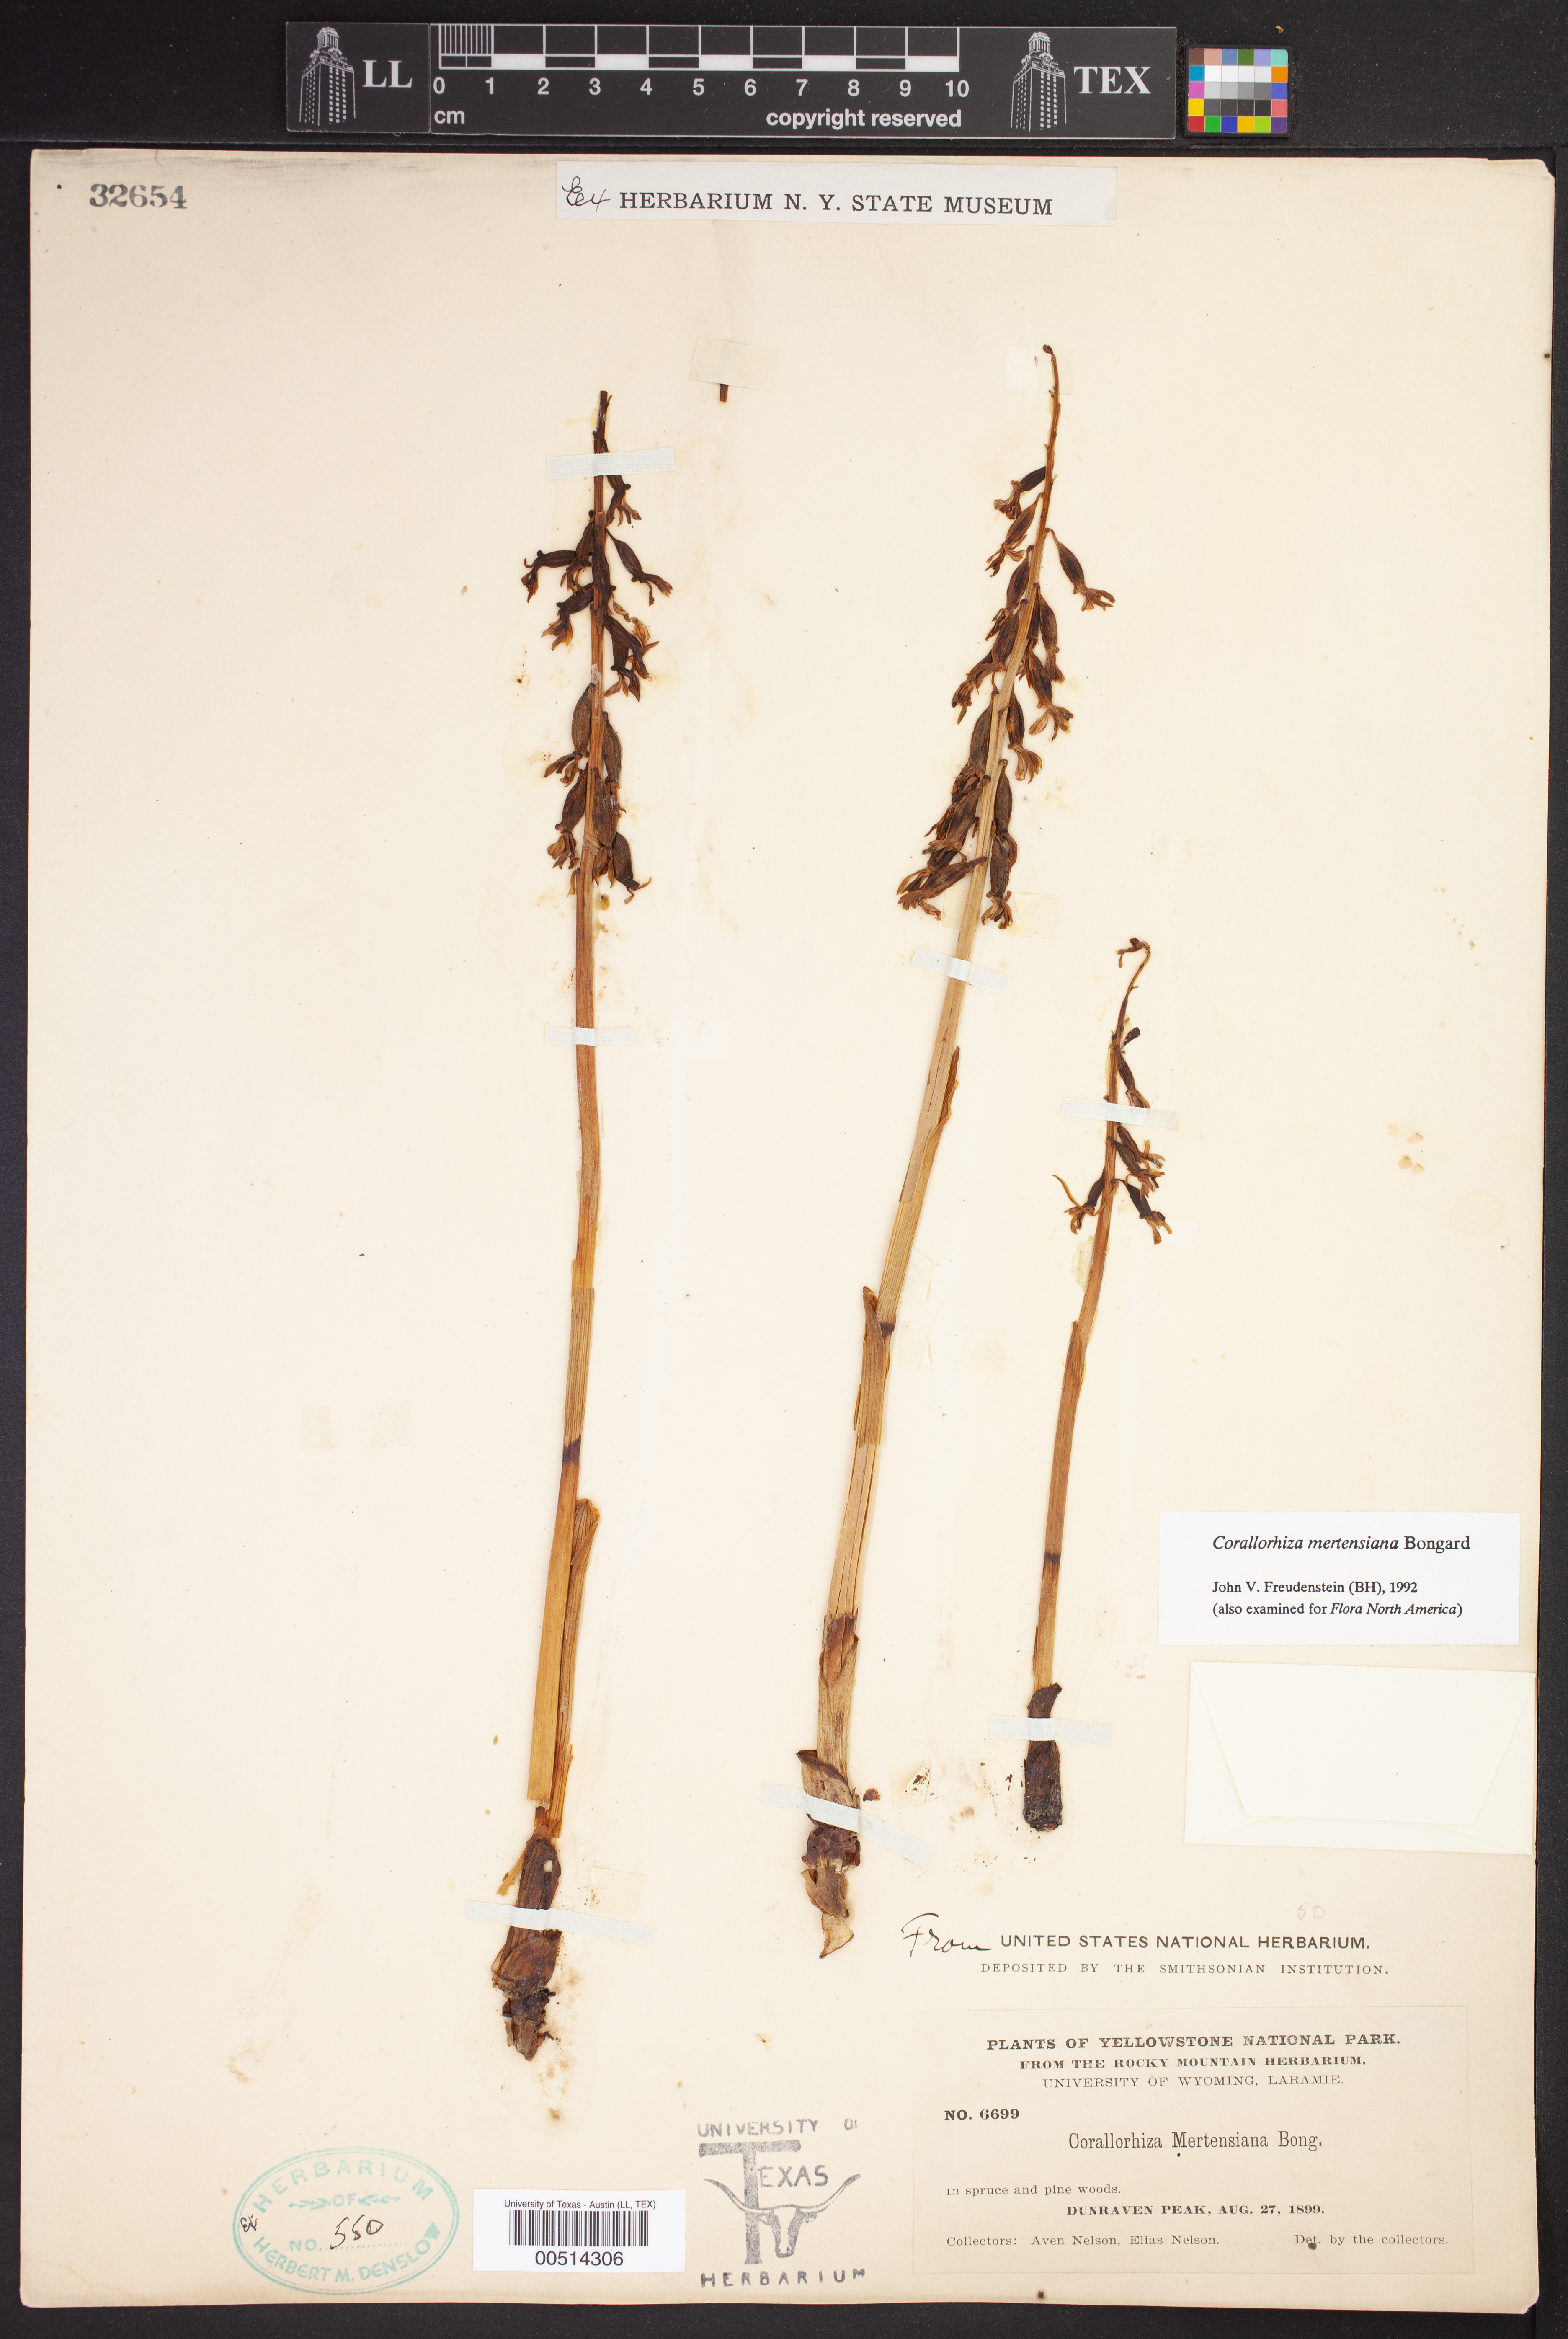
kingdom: Plantae
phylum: Tracheophyta
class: Liliopsida
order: Asparagales
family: Orchidaceae
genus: Corallorhiza
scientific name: Corallorhiza mertensiana
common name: Pacific coralroot
